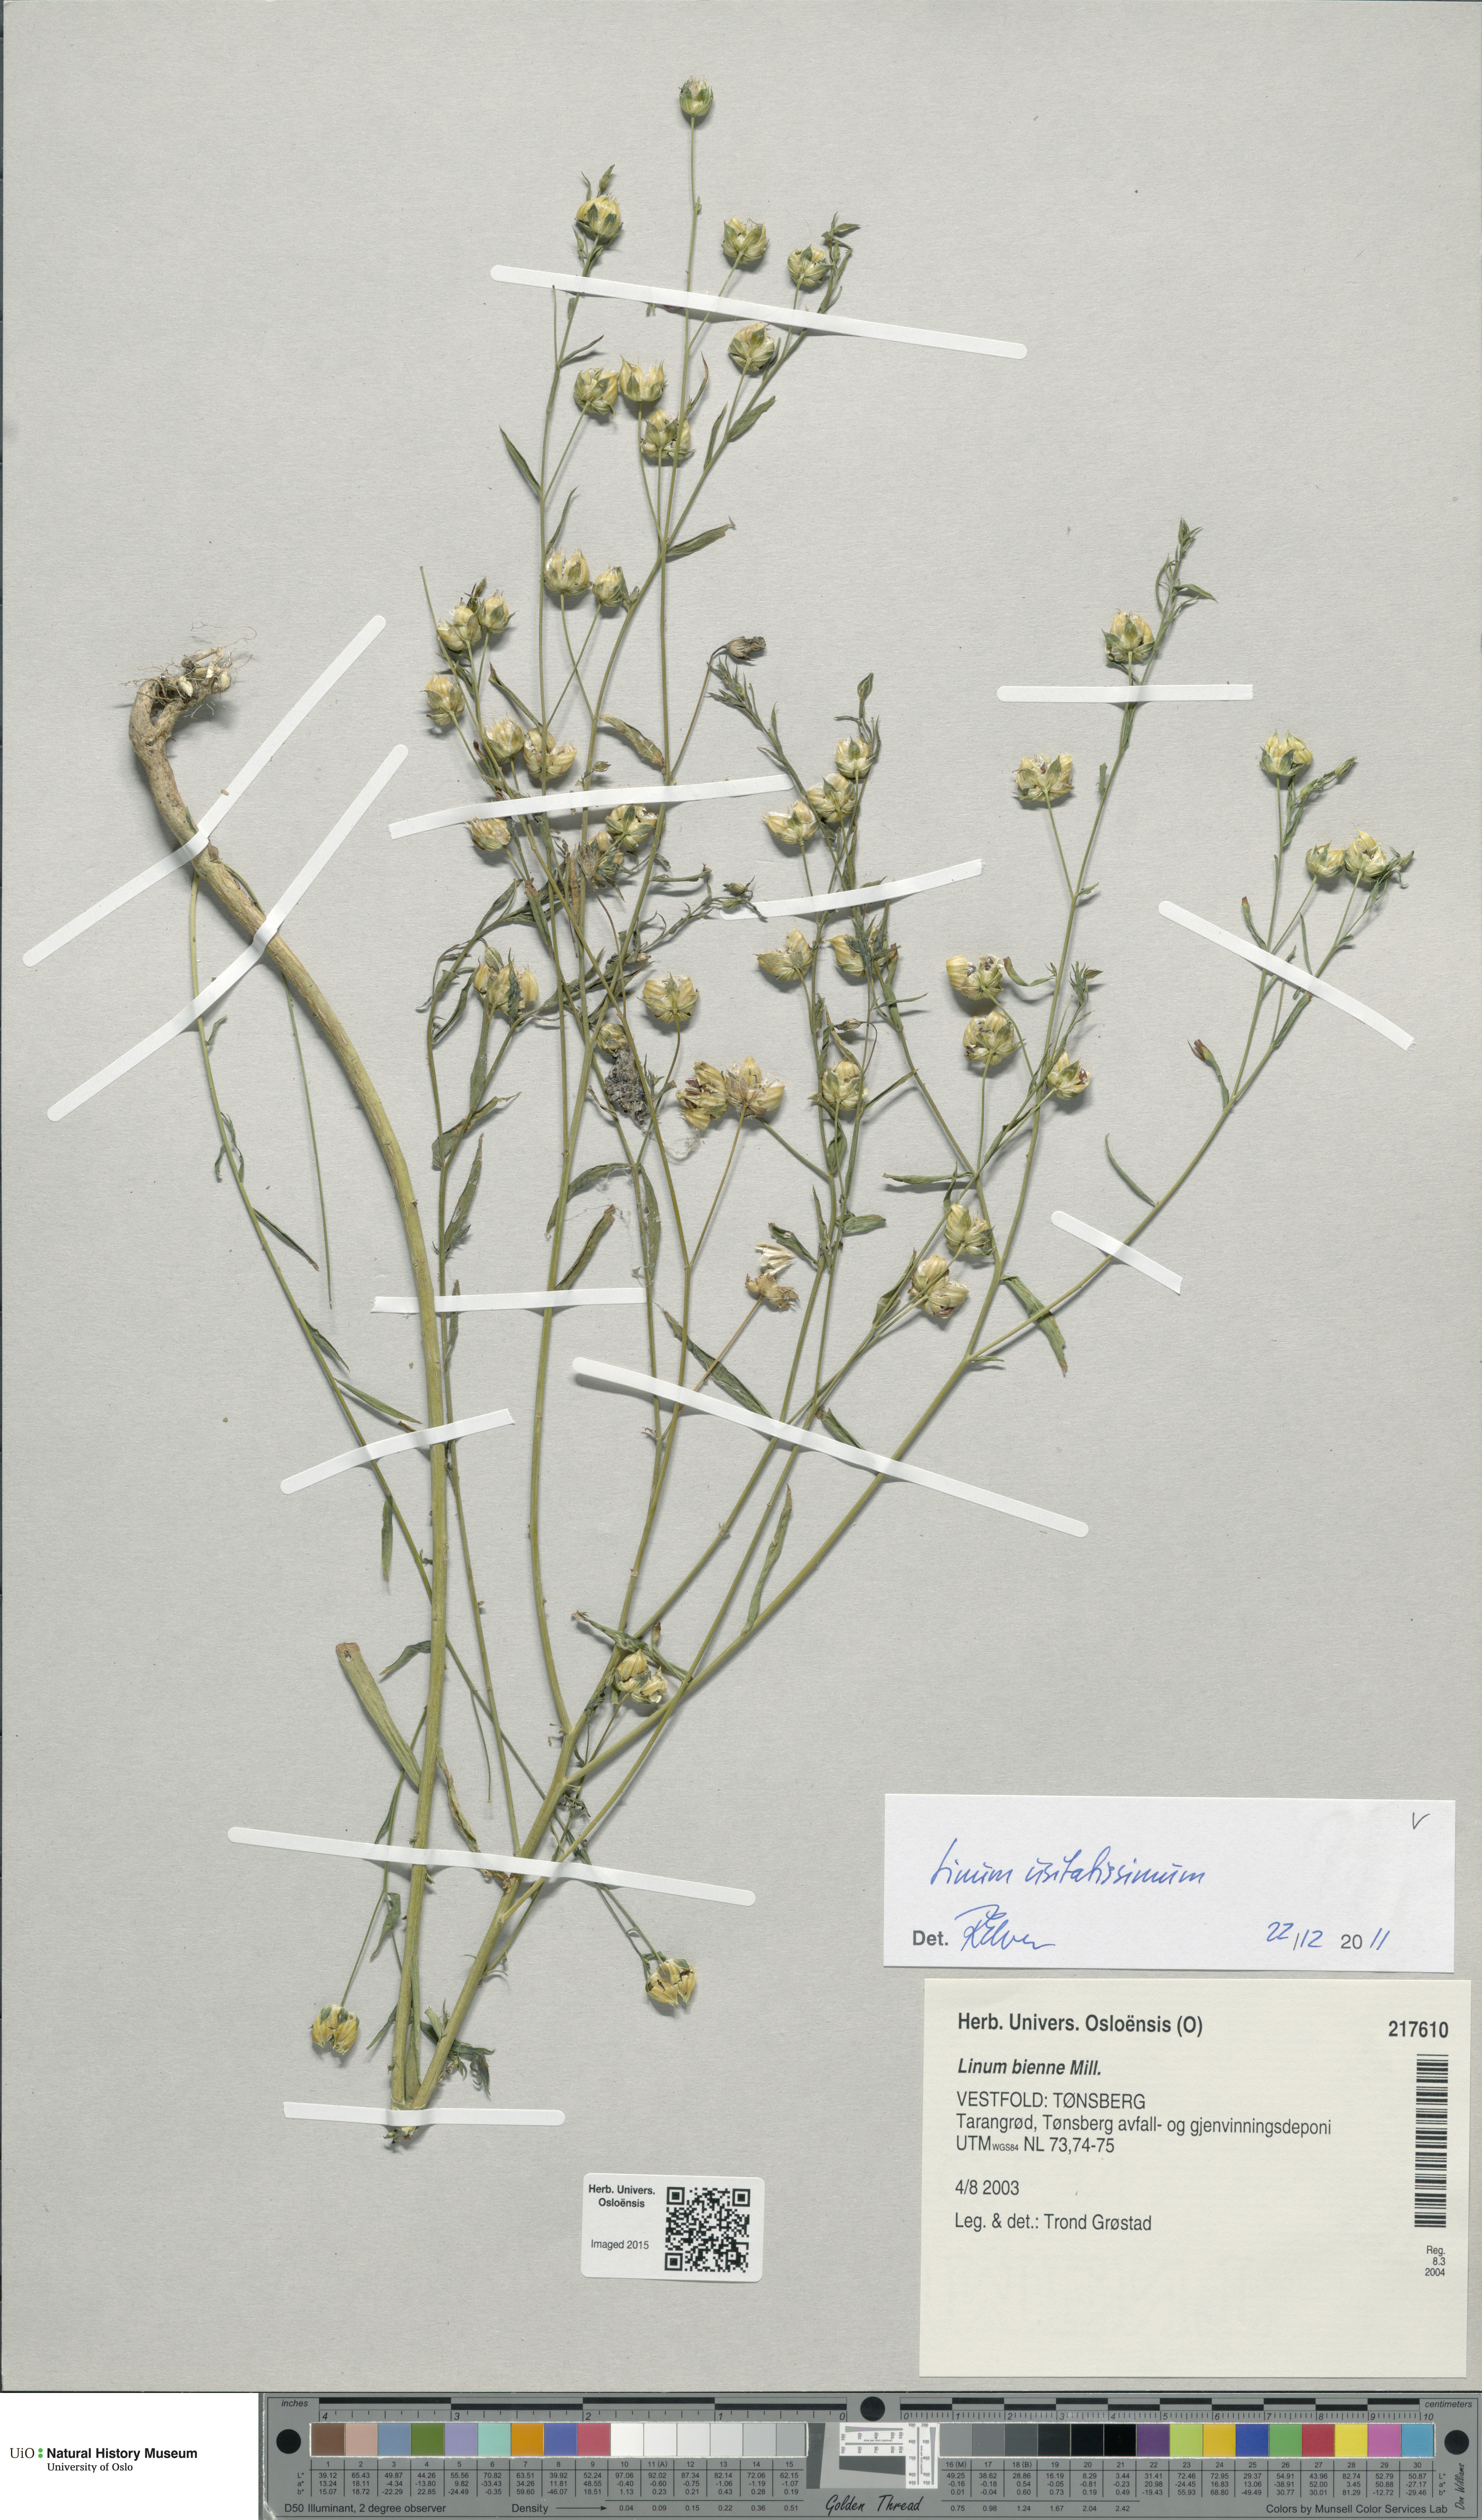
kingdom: Plantae
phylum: Tracheophyta
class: Magnoliopsida
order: Malpighiales
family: Linaceae
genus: Linum
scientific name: Linum usitatissimum
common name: Flax
